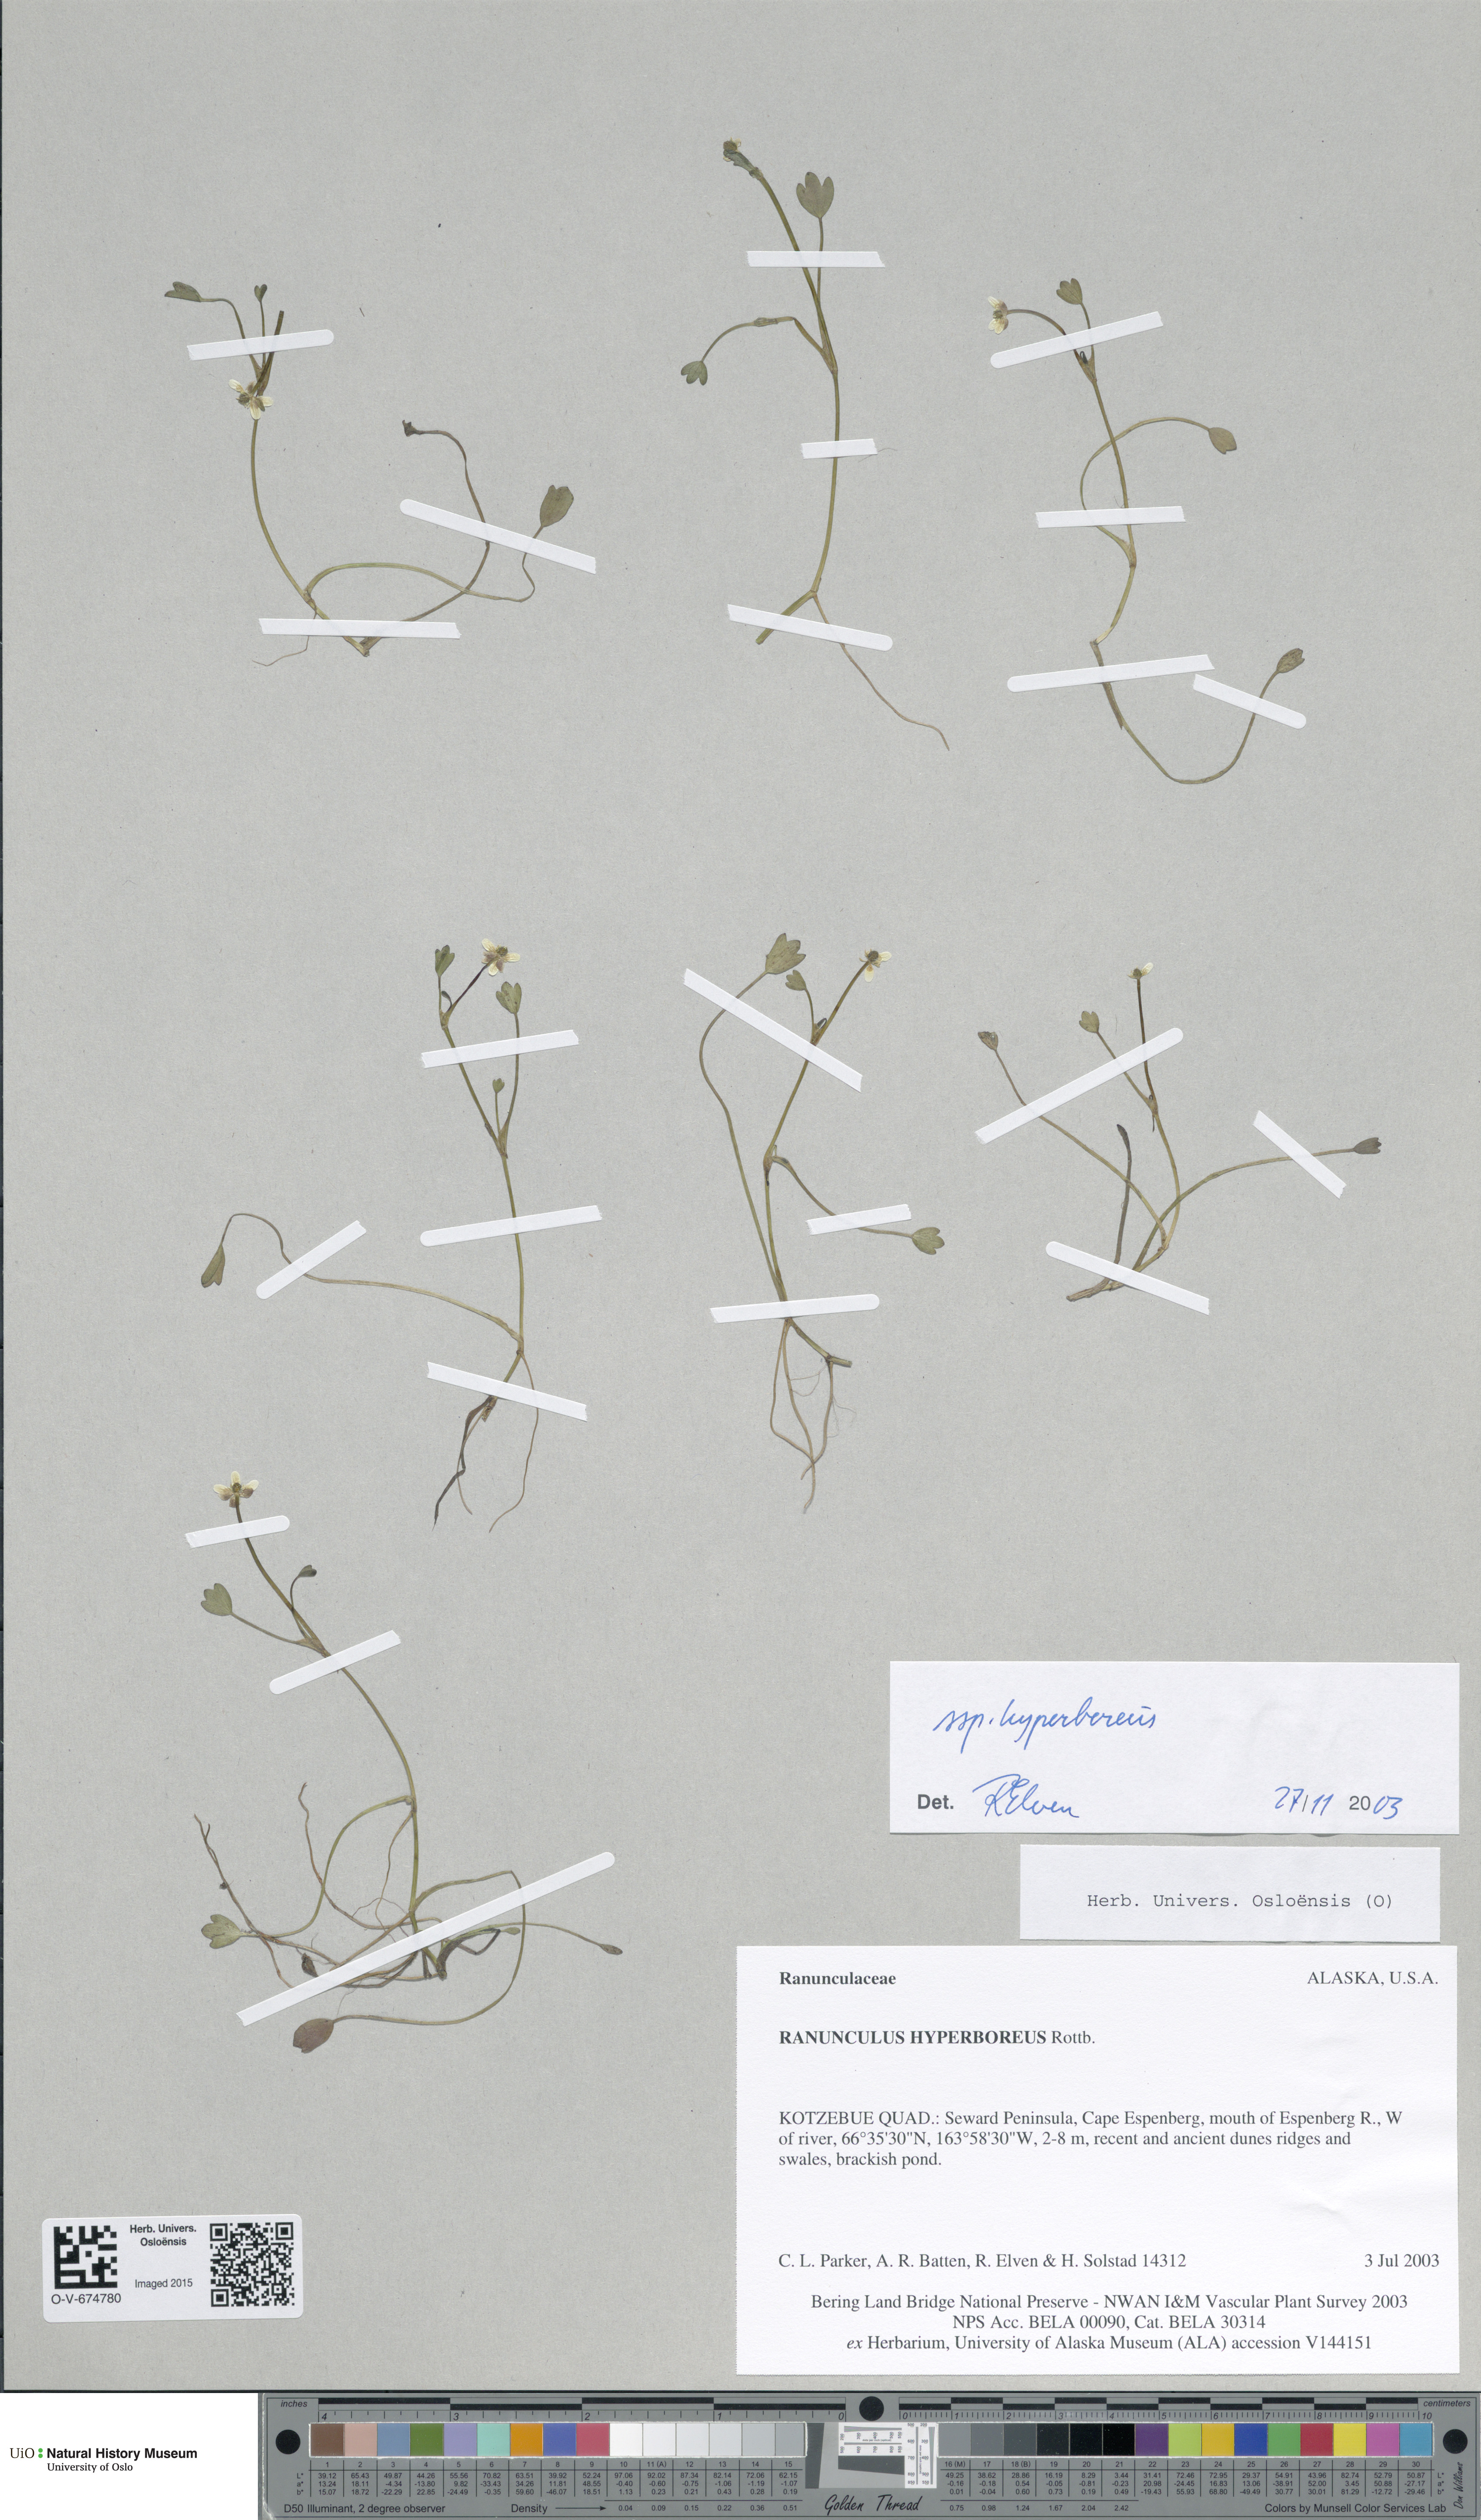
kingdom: Plantae
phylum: Tracheophyta
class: Magnoliopsida
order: Ranunculales
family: Ranunculaceae
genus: Ranunculus
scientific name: Ranunculus hyperboreus
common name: Arctic buttercup
